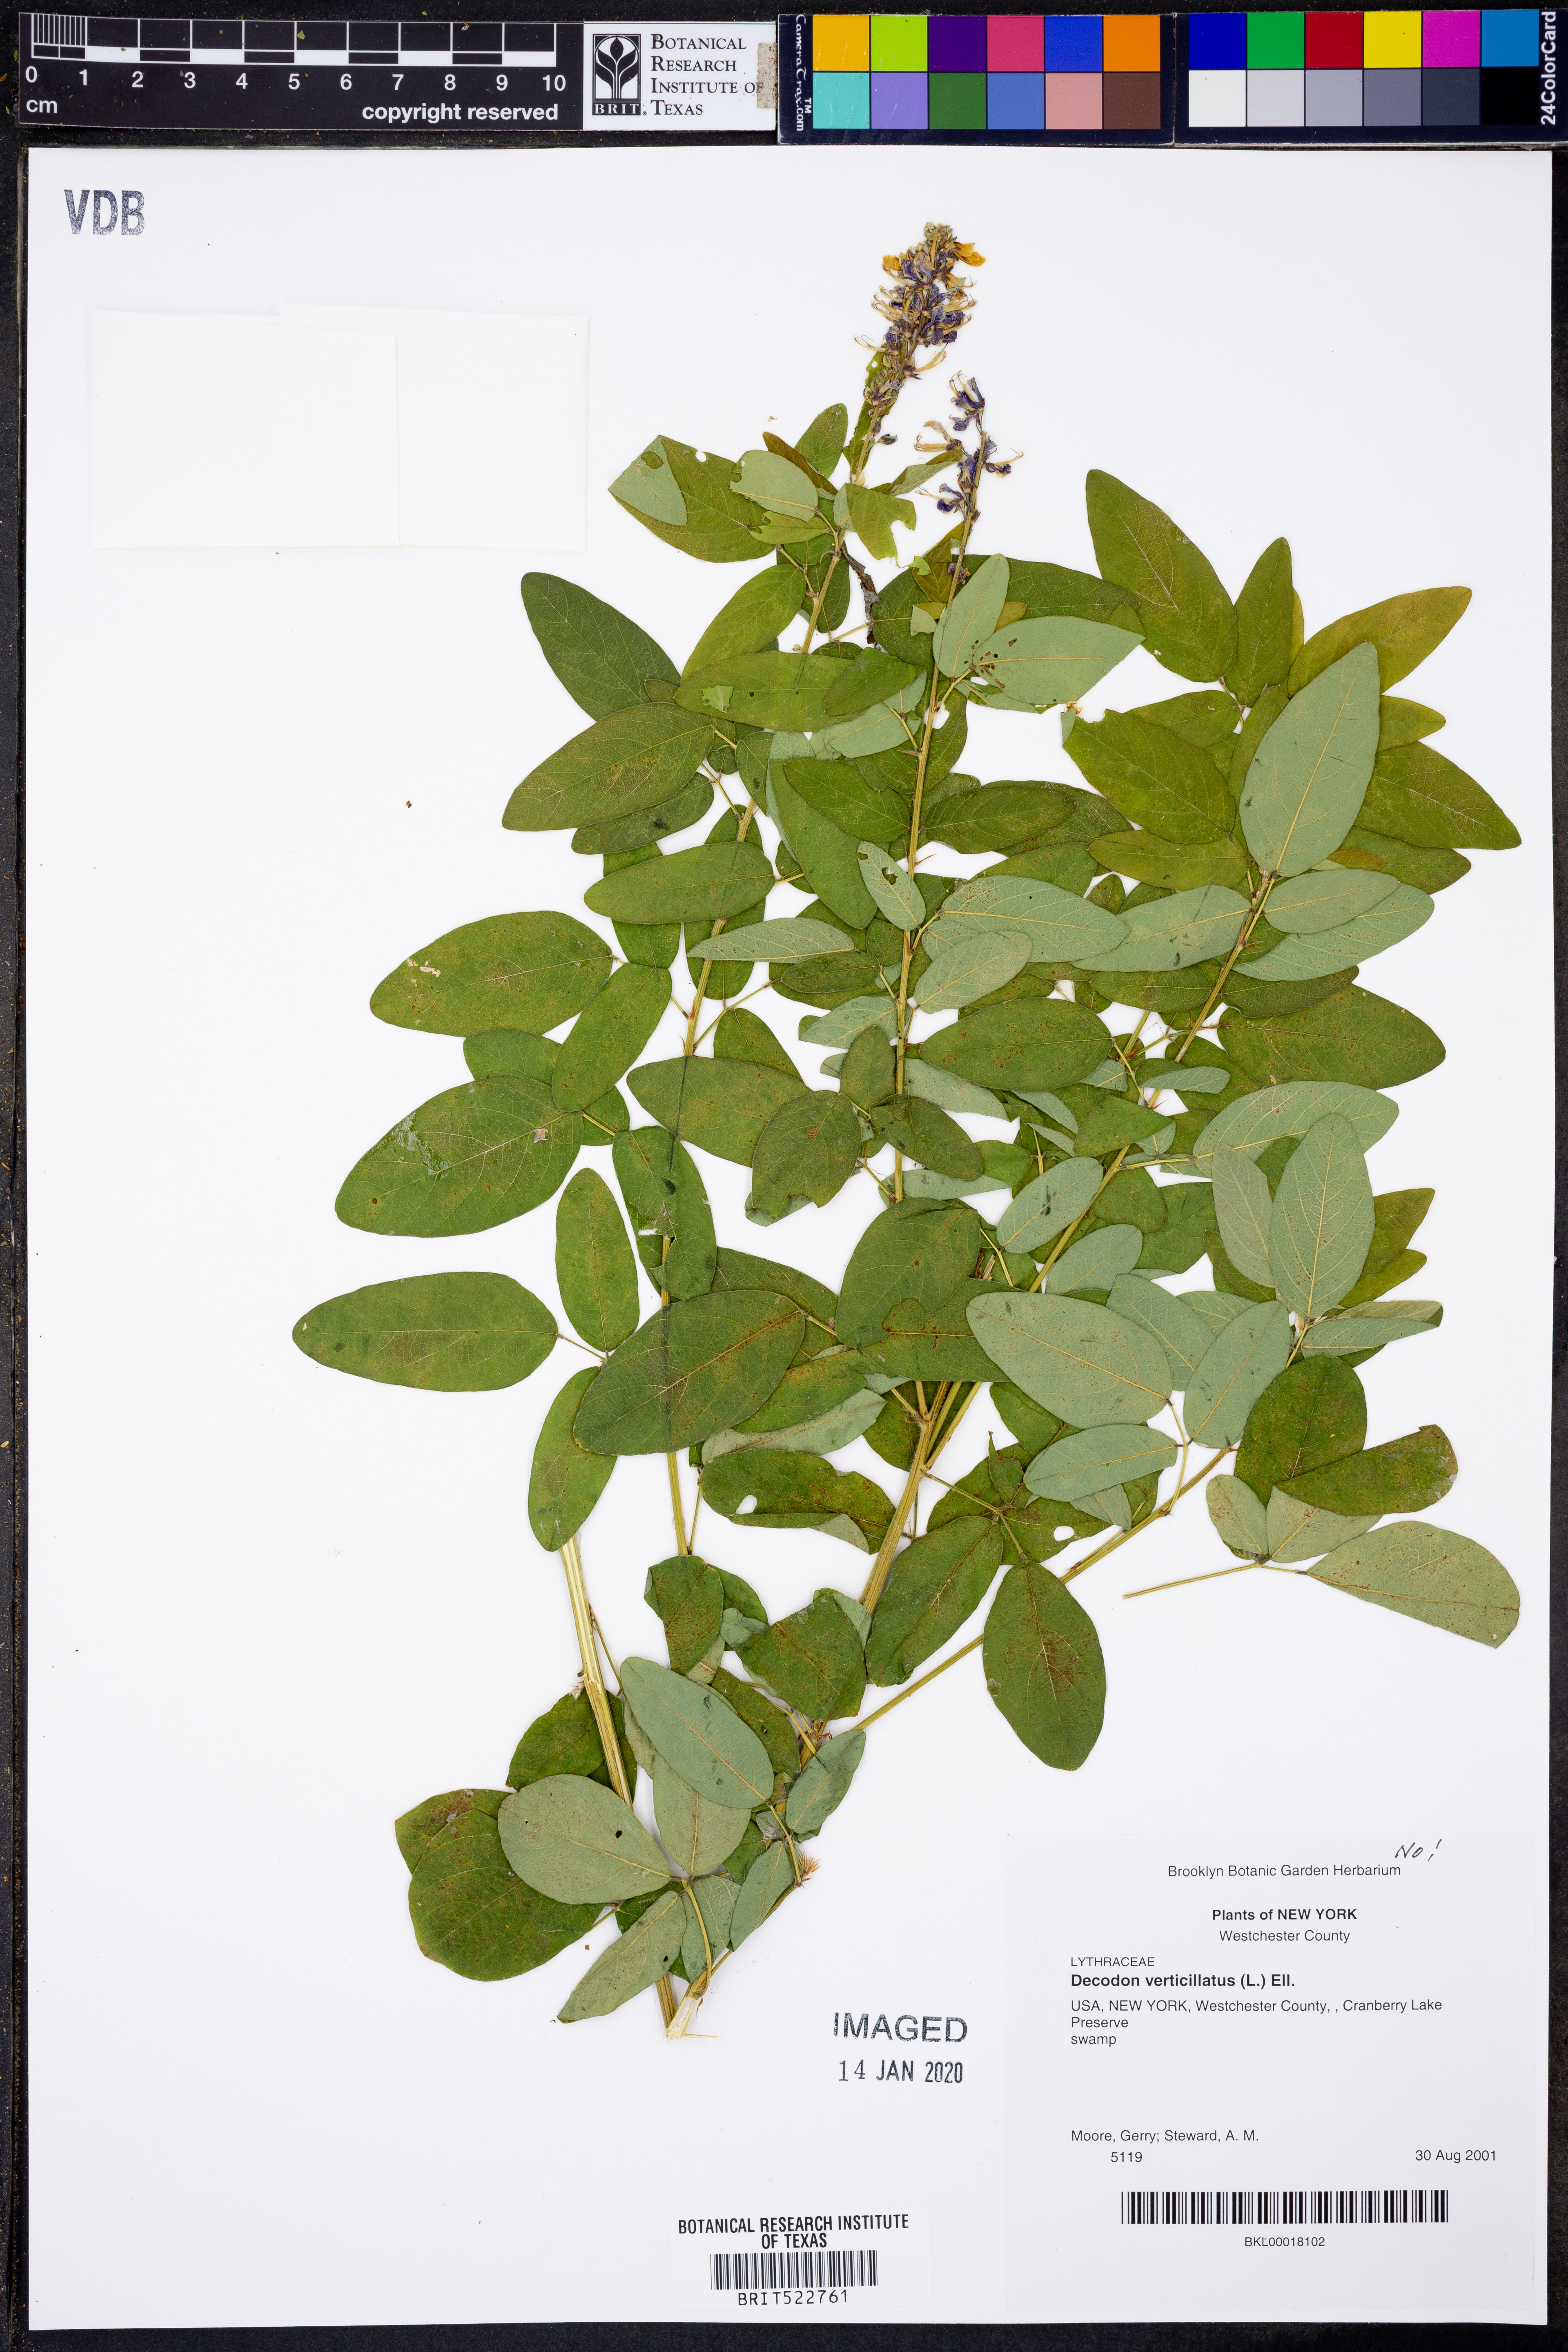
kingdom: Plantae
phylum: Tracheophyta
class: Magnoliopsida
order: Myrtales
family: Lythraceae
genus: Decodon
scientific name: Decodon verticillatus
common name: Hairy swamp loosestrife
